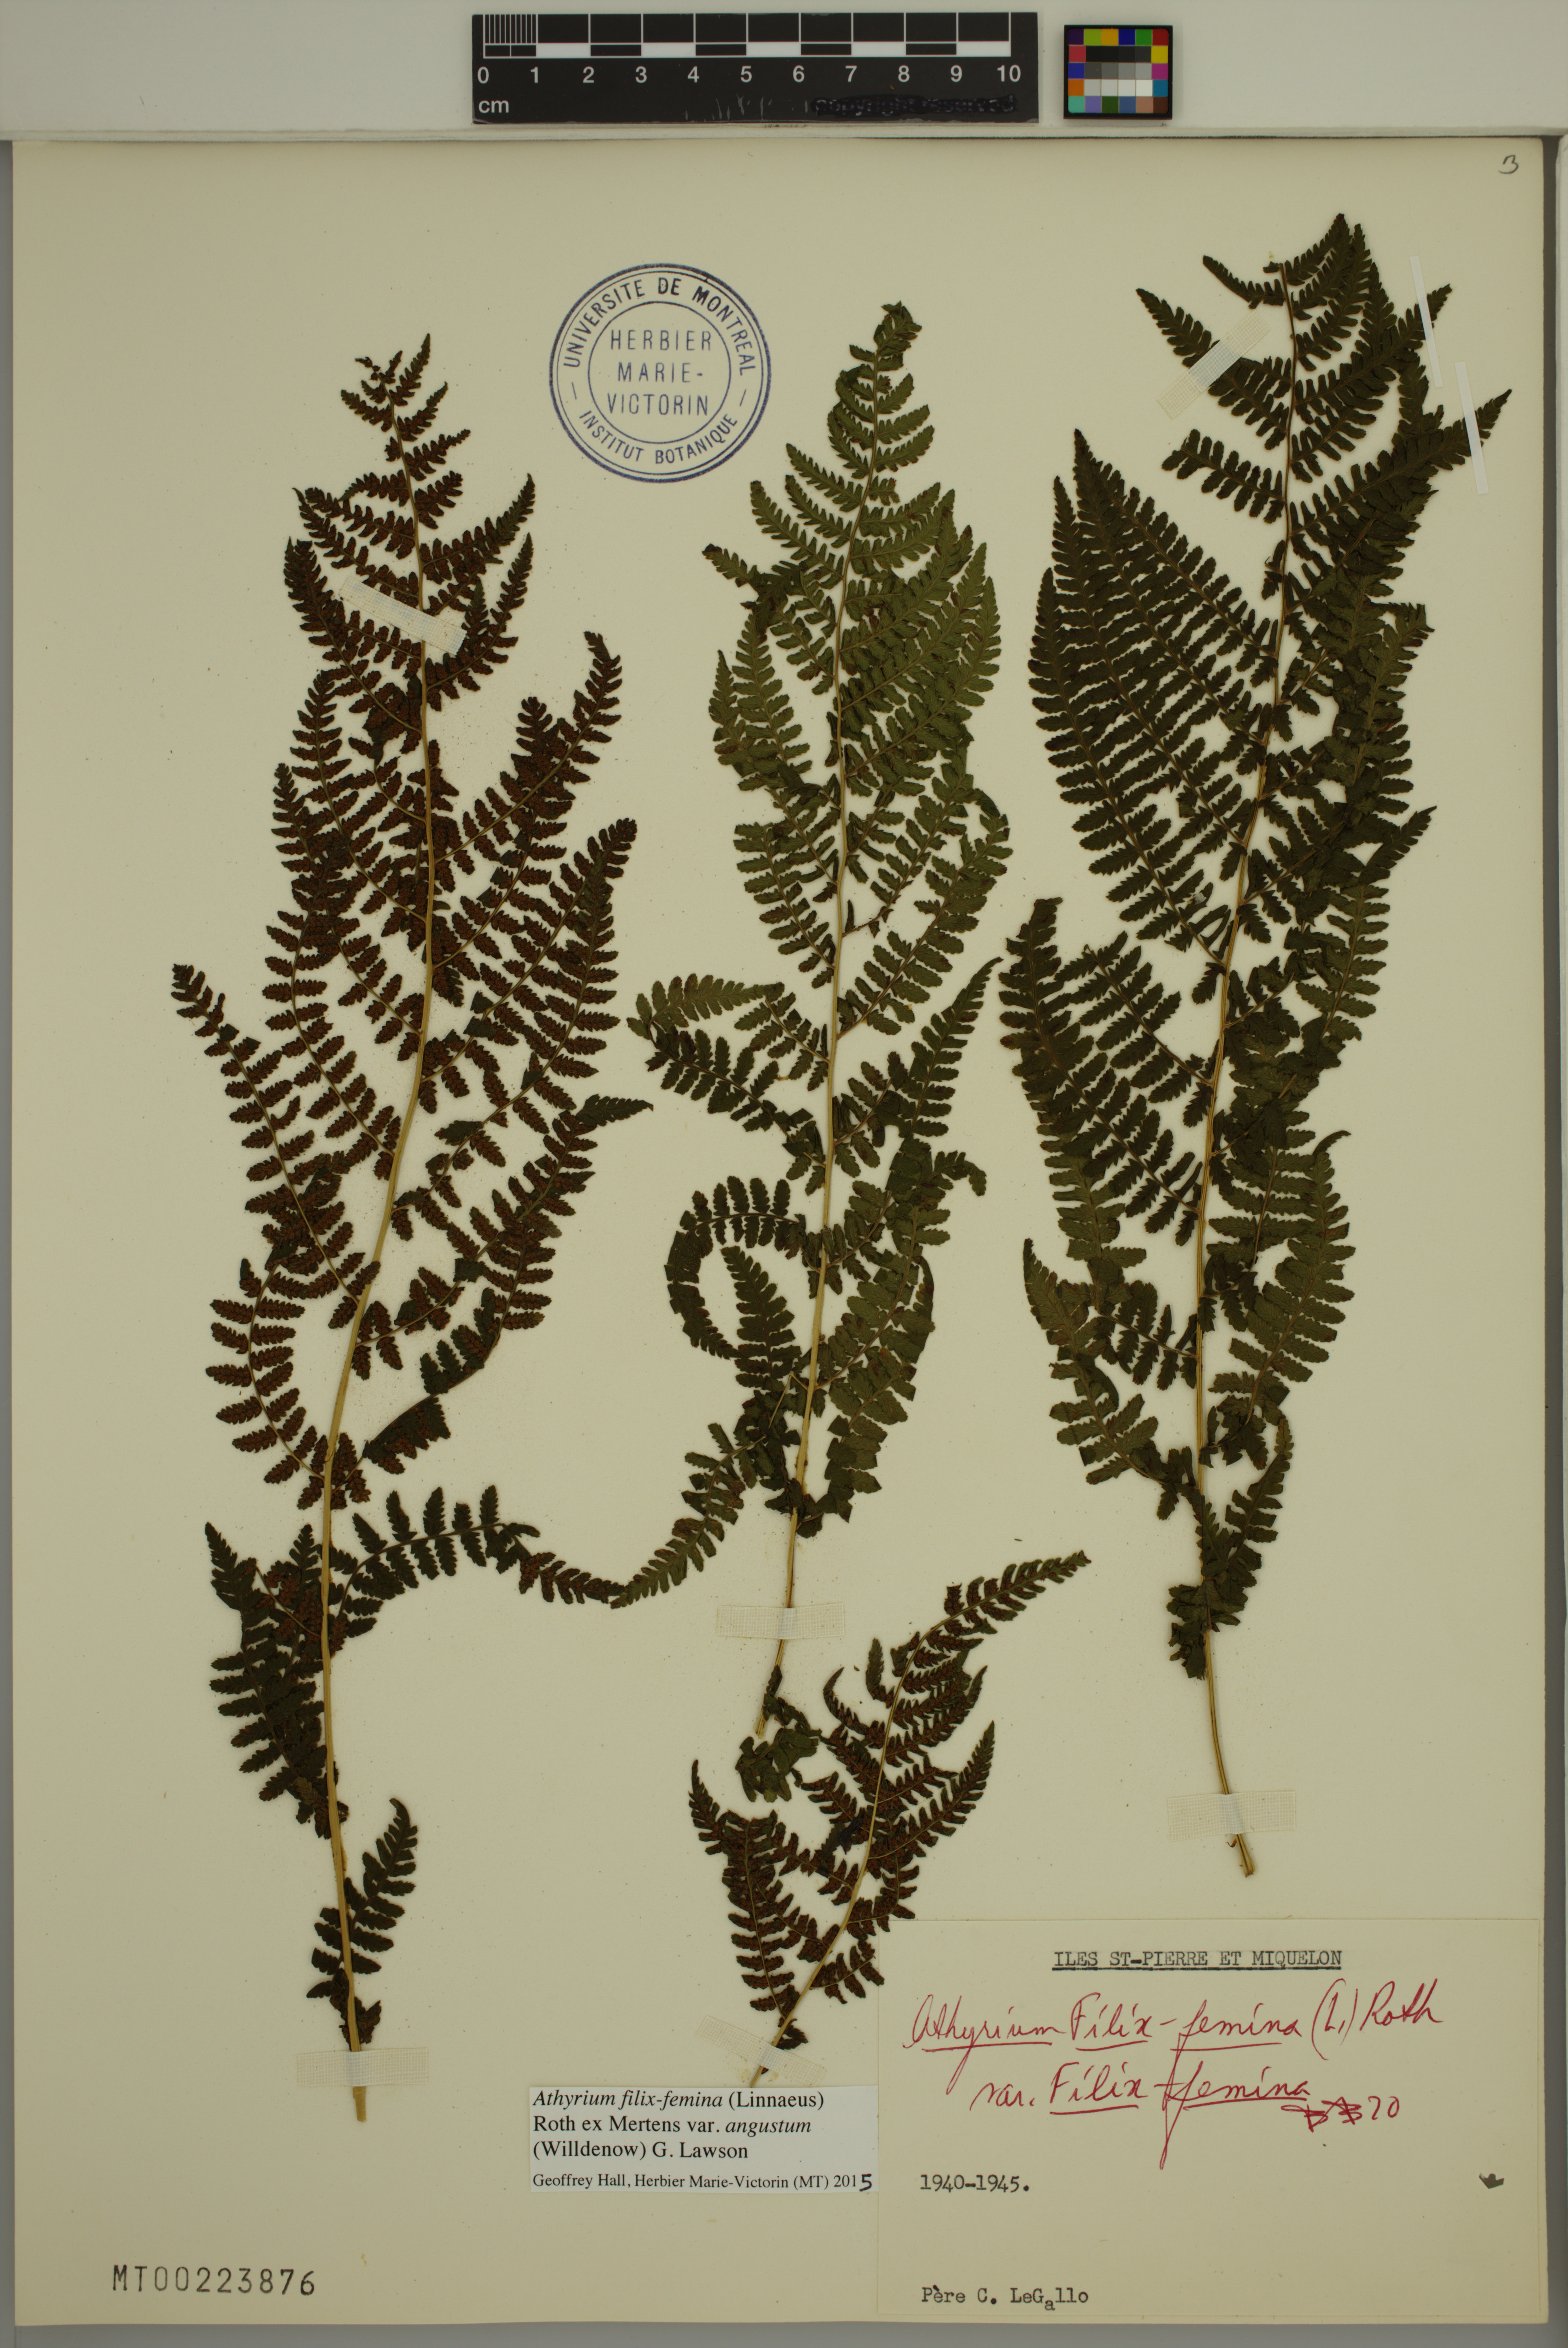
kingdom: Plantae
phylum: Tracheophyta
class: Polypodiopsida
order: Polypodiales
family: Athyriaceae
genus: Athyrium
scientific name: Athyrium angustum
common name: Northern lady fern
